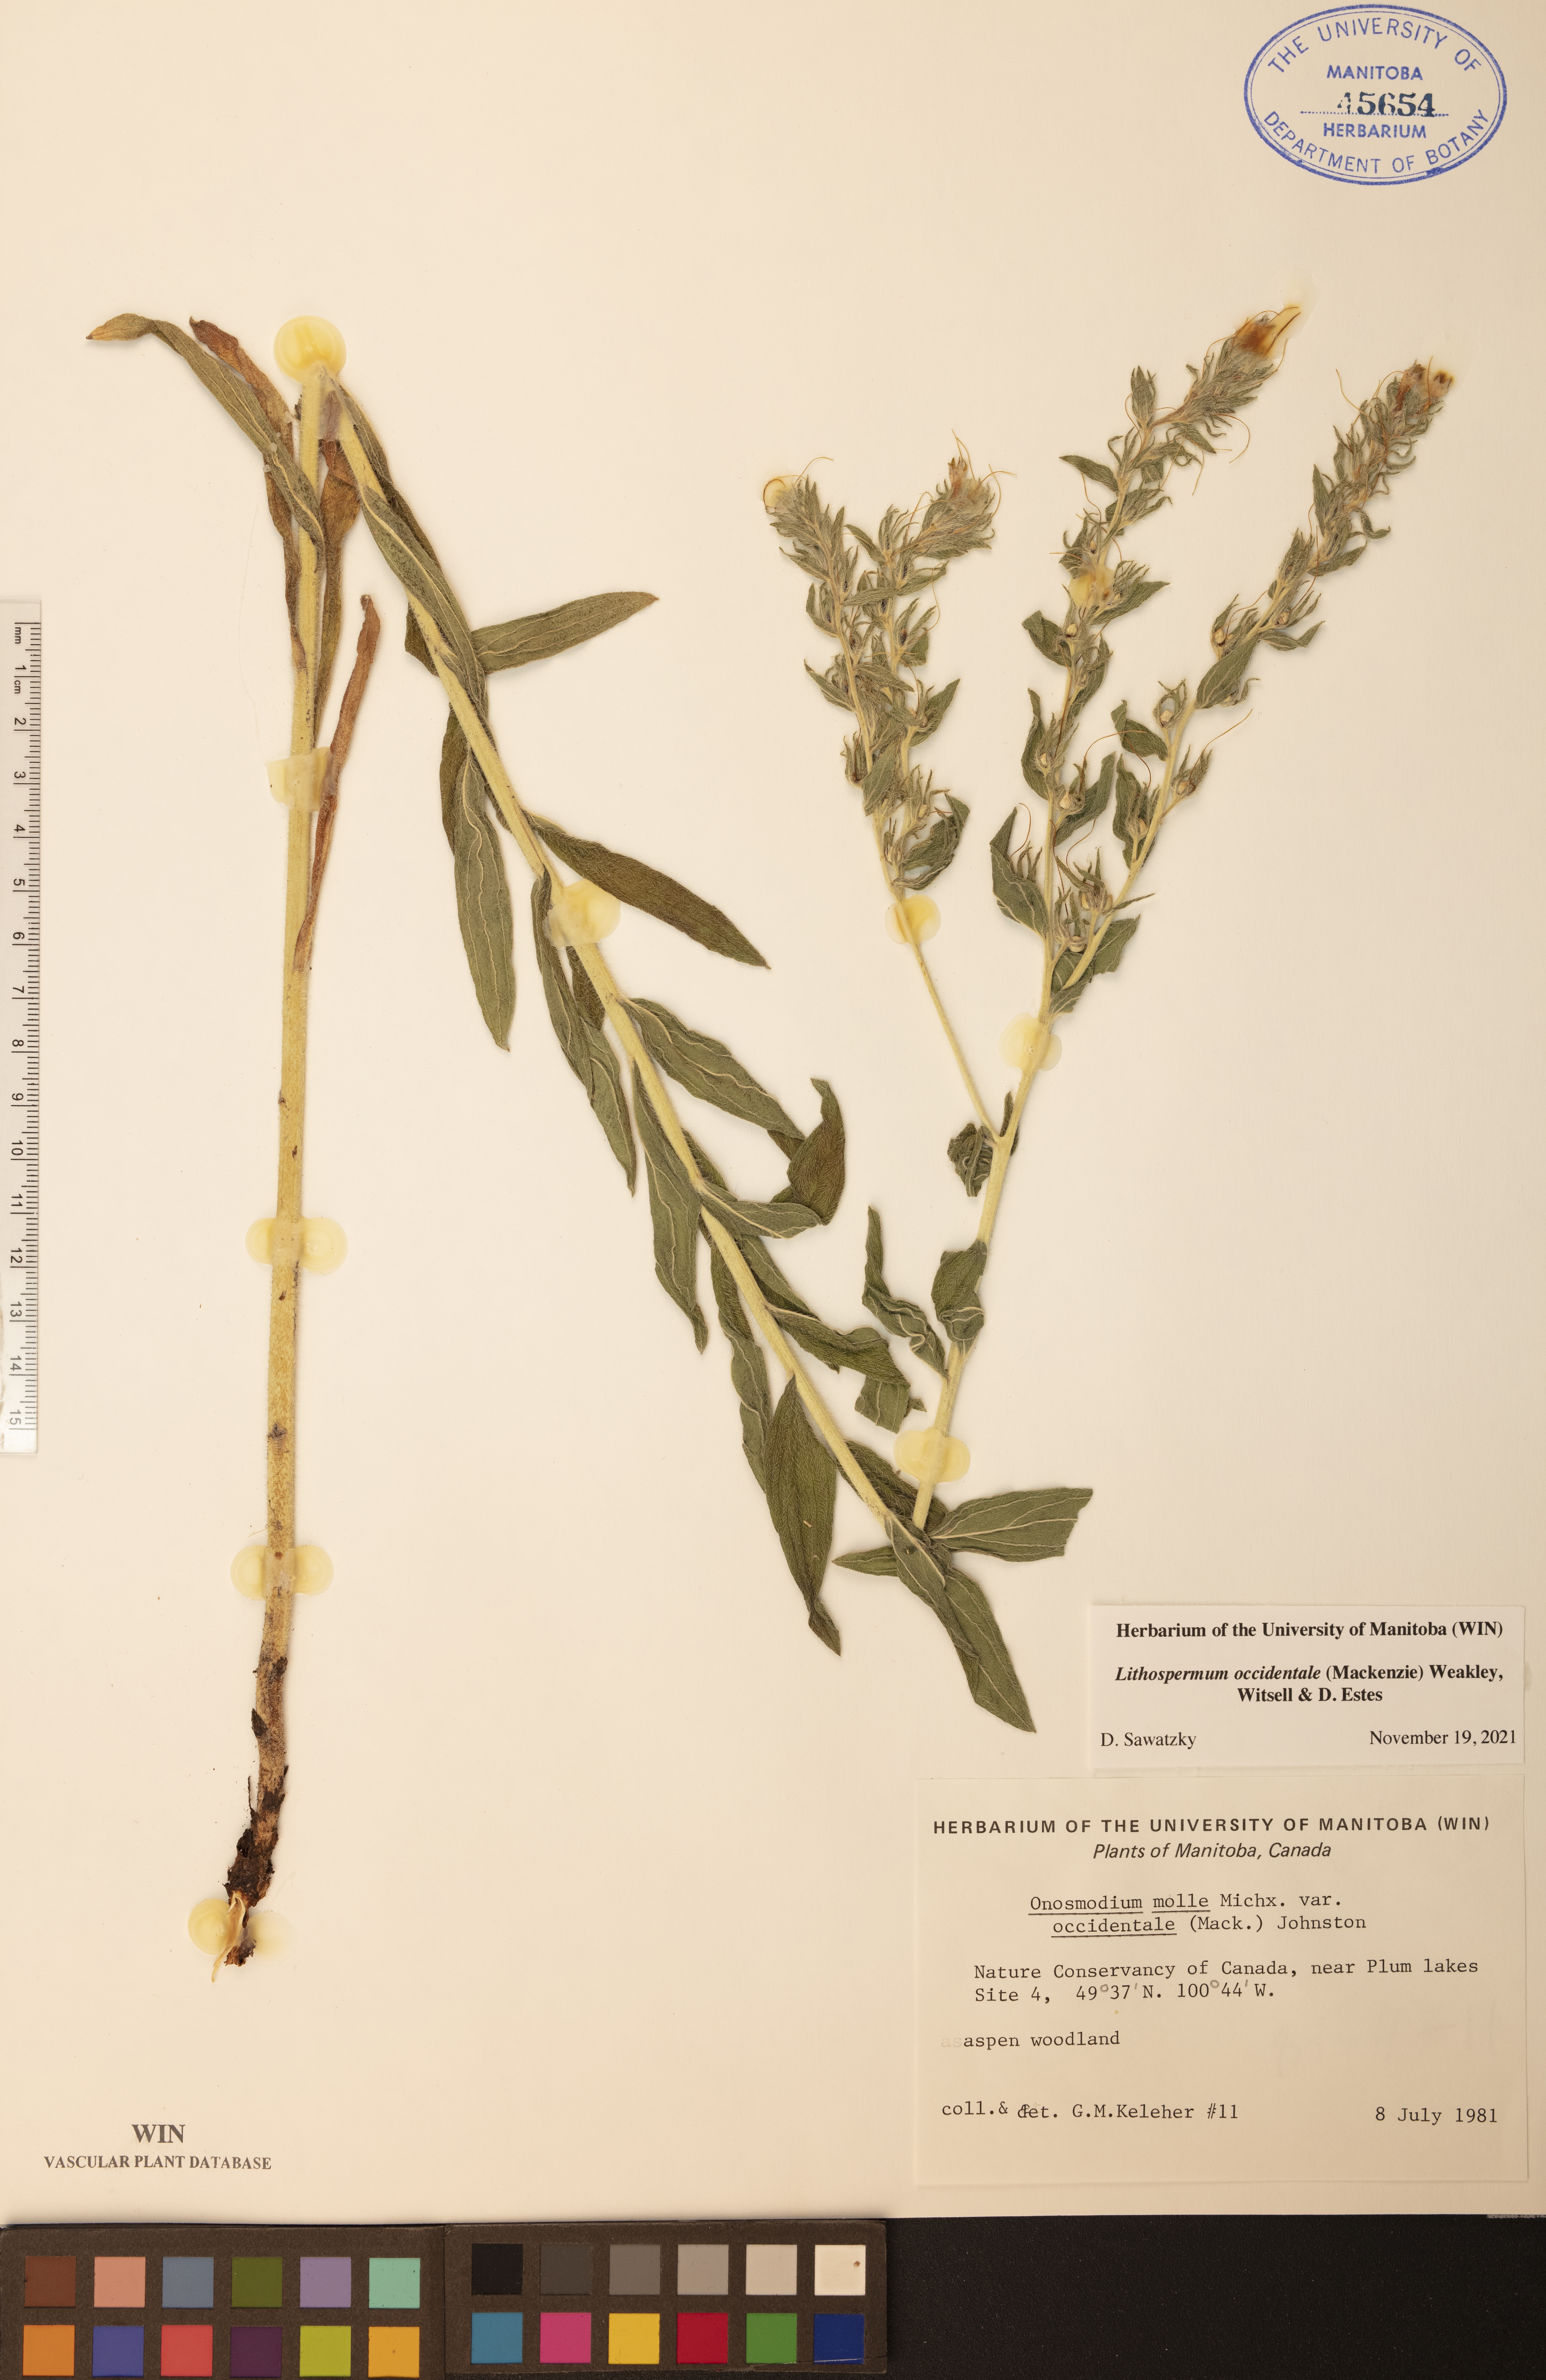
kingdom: Plantae
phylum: Tracheophyta
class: Magnoliopsida
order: Boraginales
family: Boraginaceae
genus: Lithospermum
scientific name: Lithospermum occidentale
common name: Western false gromwell
